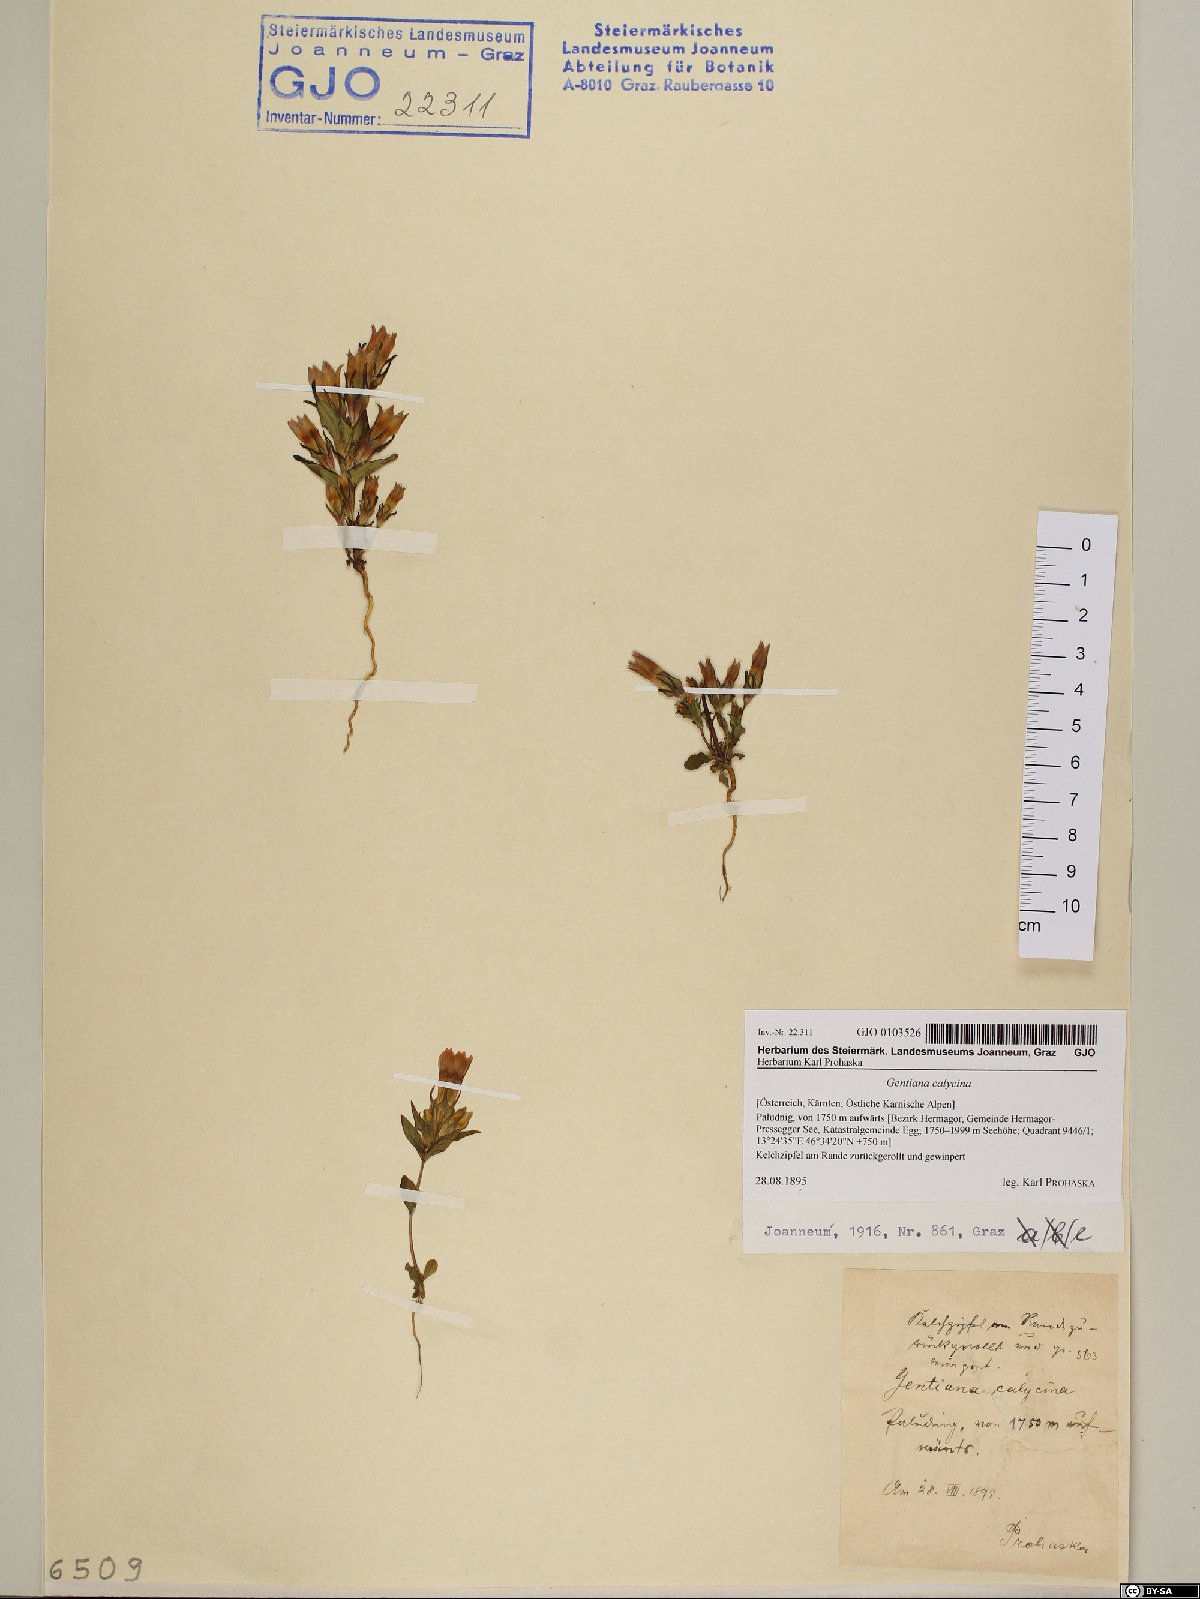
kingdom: Plantae
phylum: Tracheophyta
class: Magnoliopsida
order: Gentianales
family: Gentianaceae
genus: Gentianella
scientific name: Gentianella germanica
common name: Chiltern-gentian
